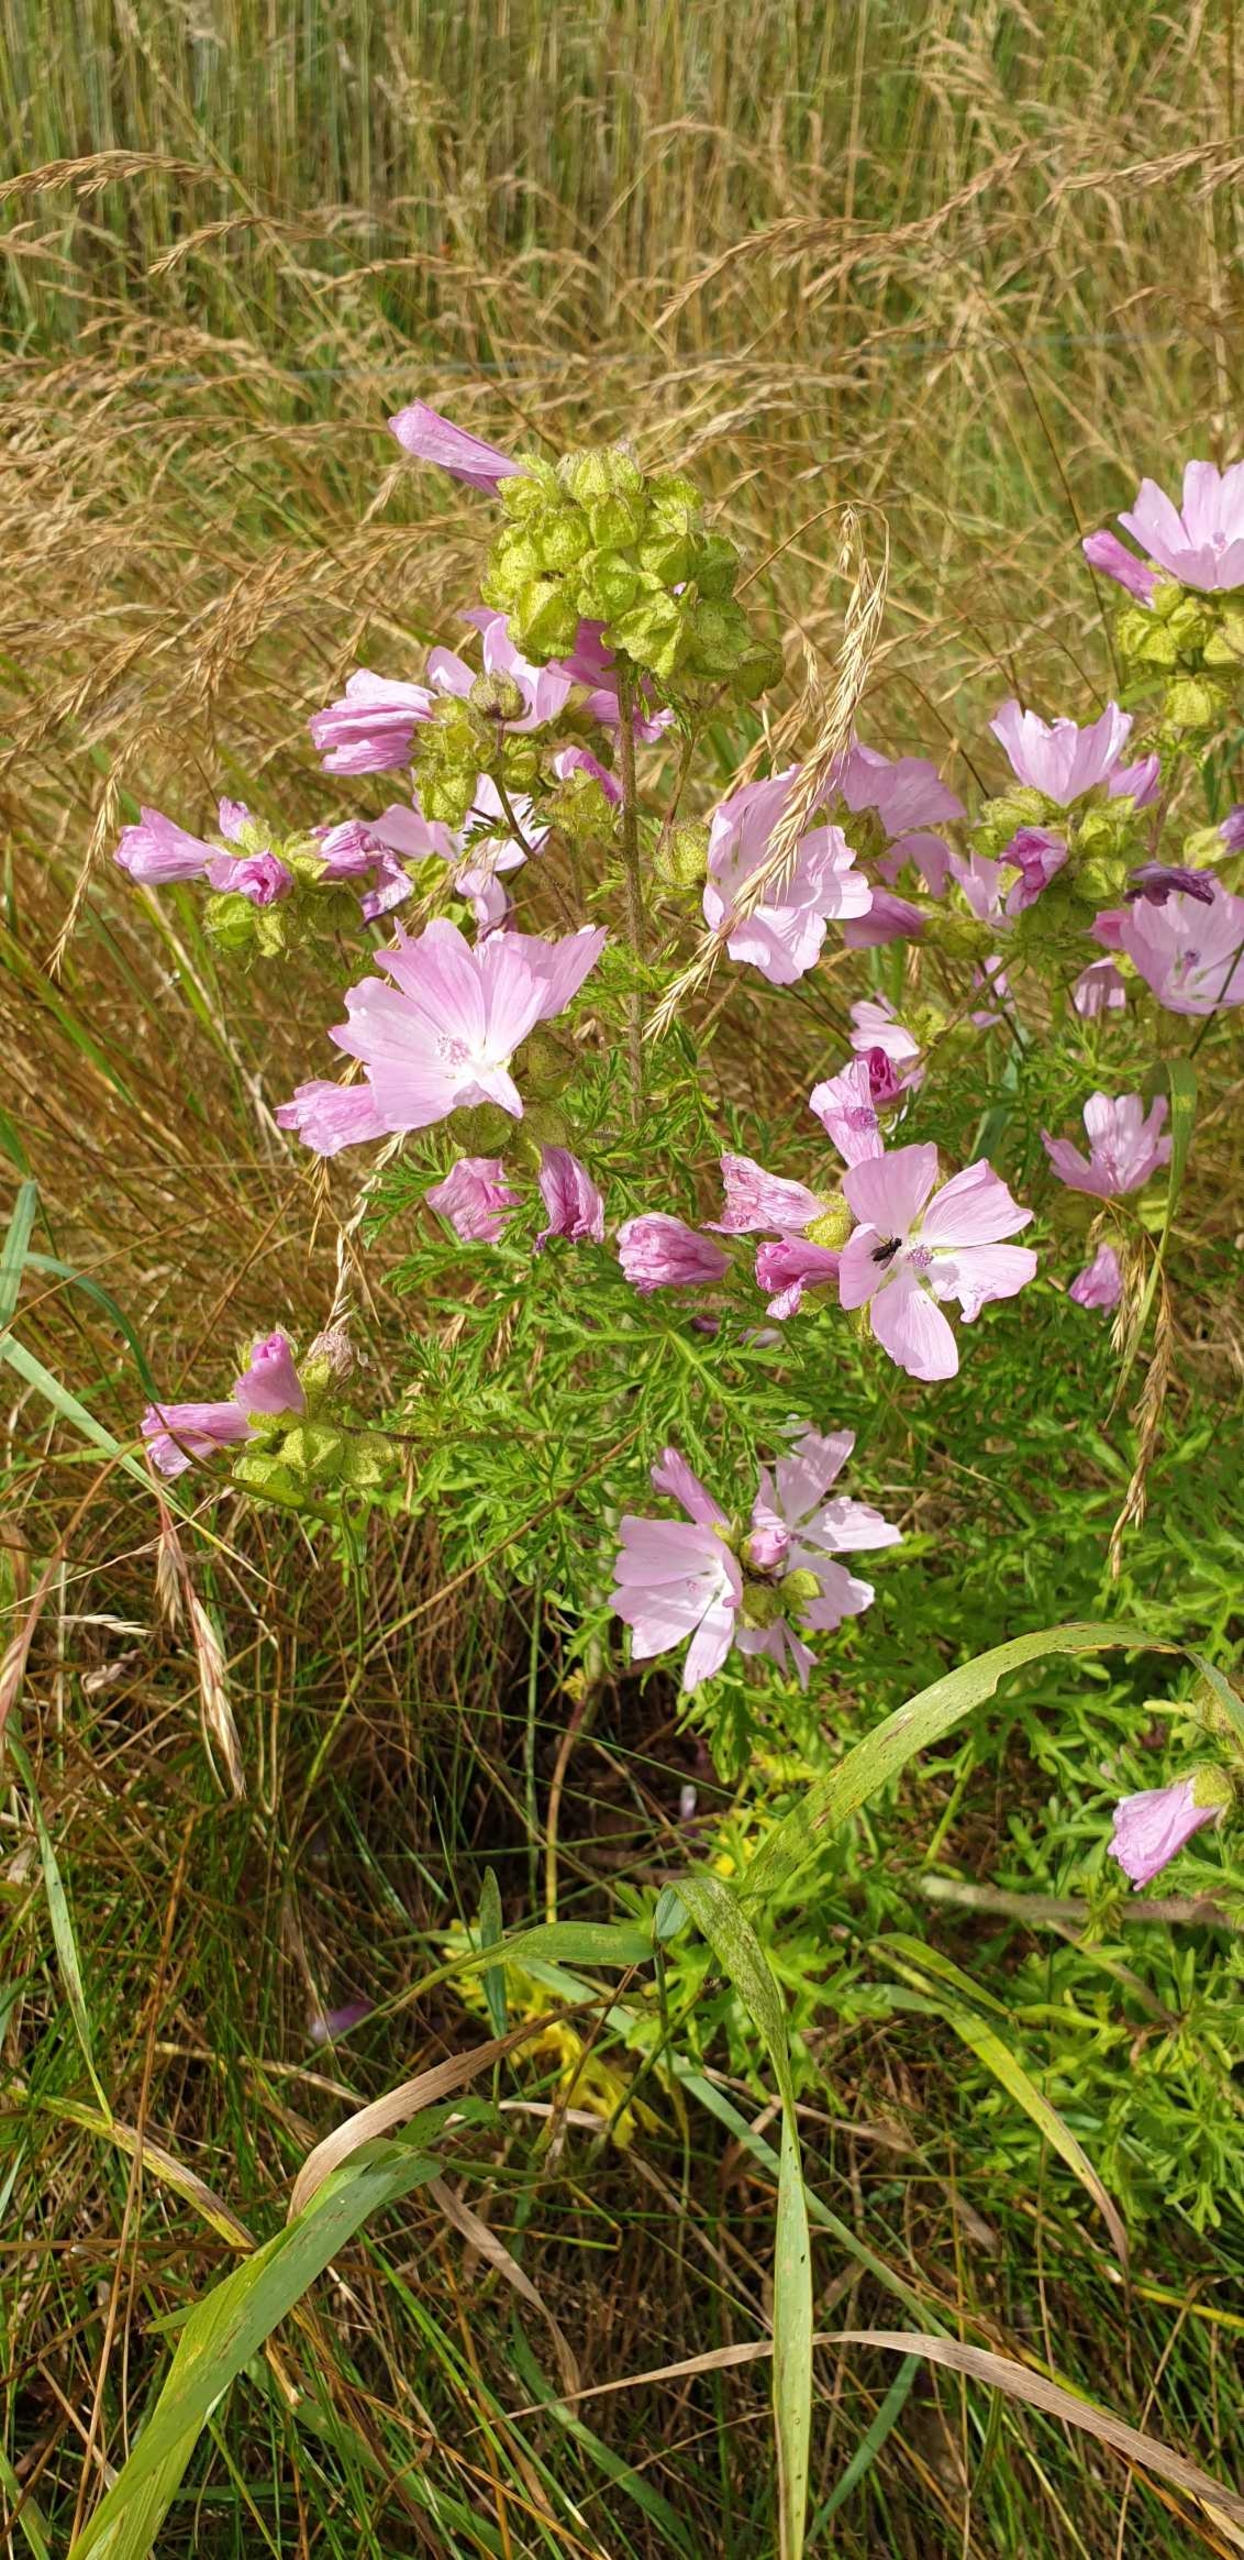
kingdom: Plantae
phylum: Tracheophyta
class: Magnoliopsida
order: Malvales
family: Malvaceae
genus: Malva
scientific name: Malva moschata
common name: Moskus-katost
